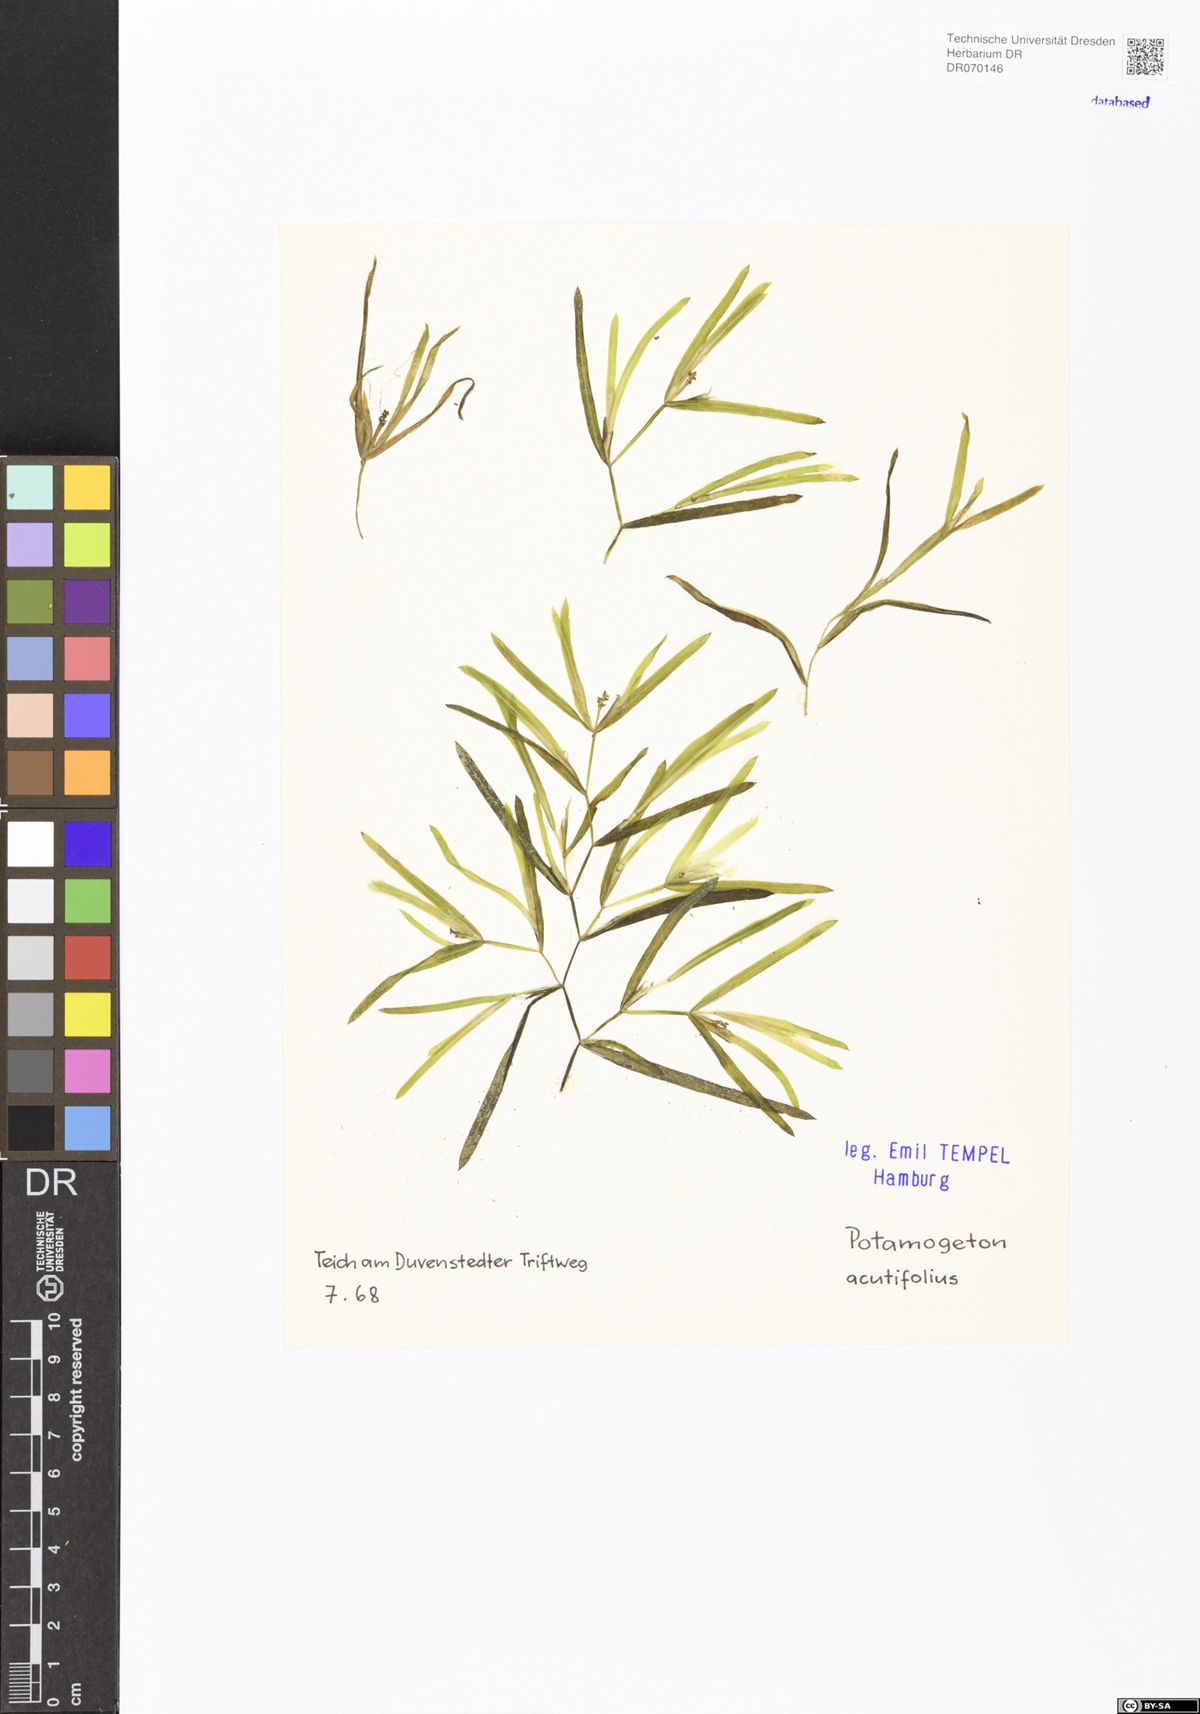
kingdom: Plantae
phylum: Tracheophyta
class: Liliopsida
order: Alismatales
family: Potamogetonaceae
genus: Potamogeton
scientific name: Potamogeton acutifolius
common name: Sharp-leaved pondweed
